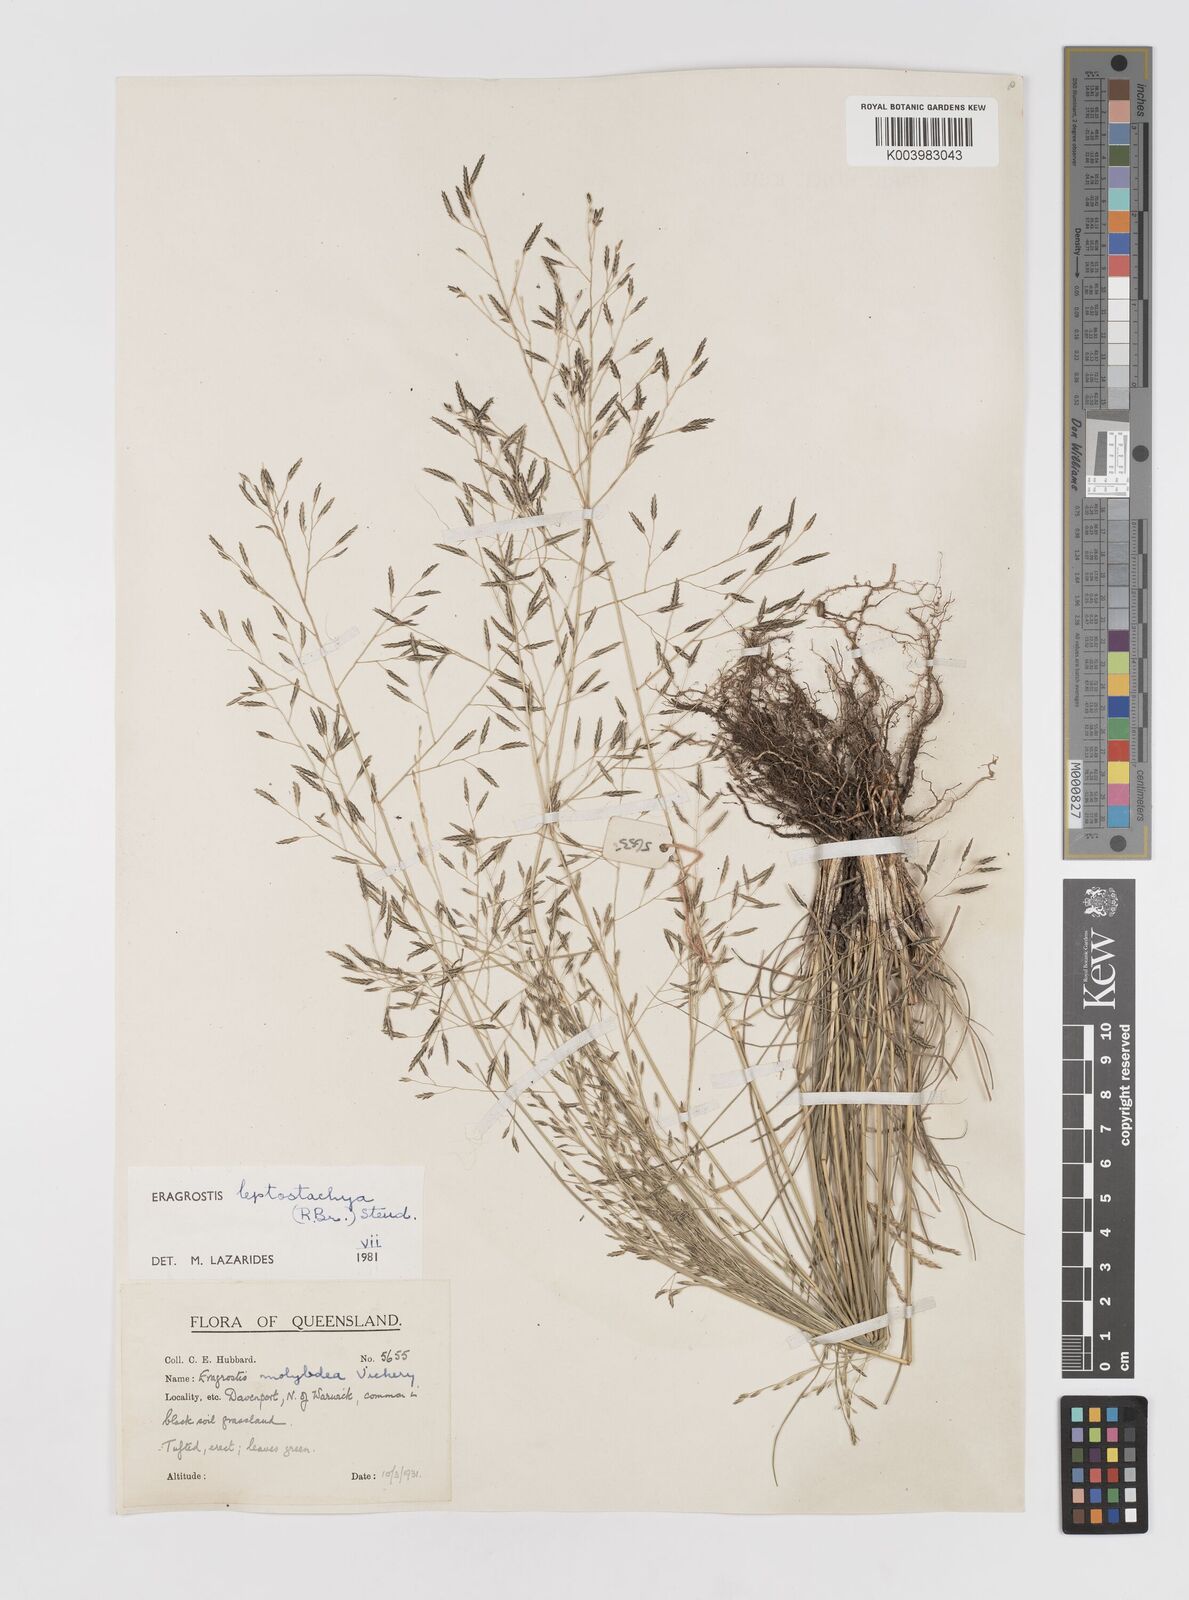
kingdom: Plantae
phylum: Tracheophyta
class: Liliopsida
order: Poales
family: Poaceae
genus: Eragrostis
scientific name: Eragrostis leptostachya
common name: Australian lovegrass
